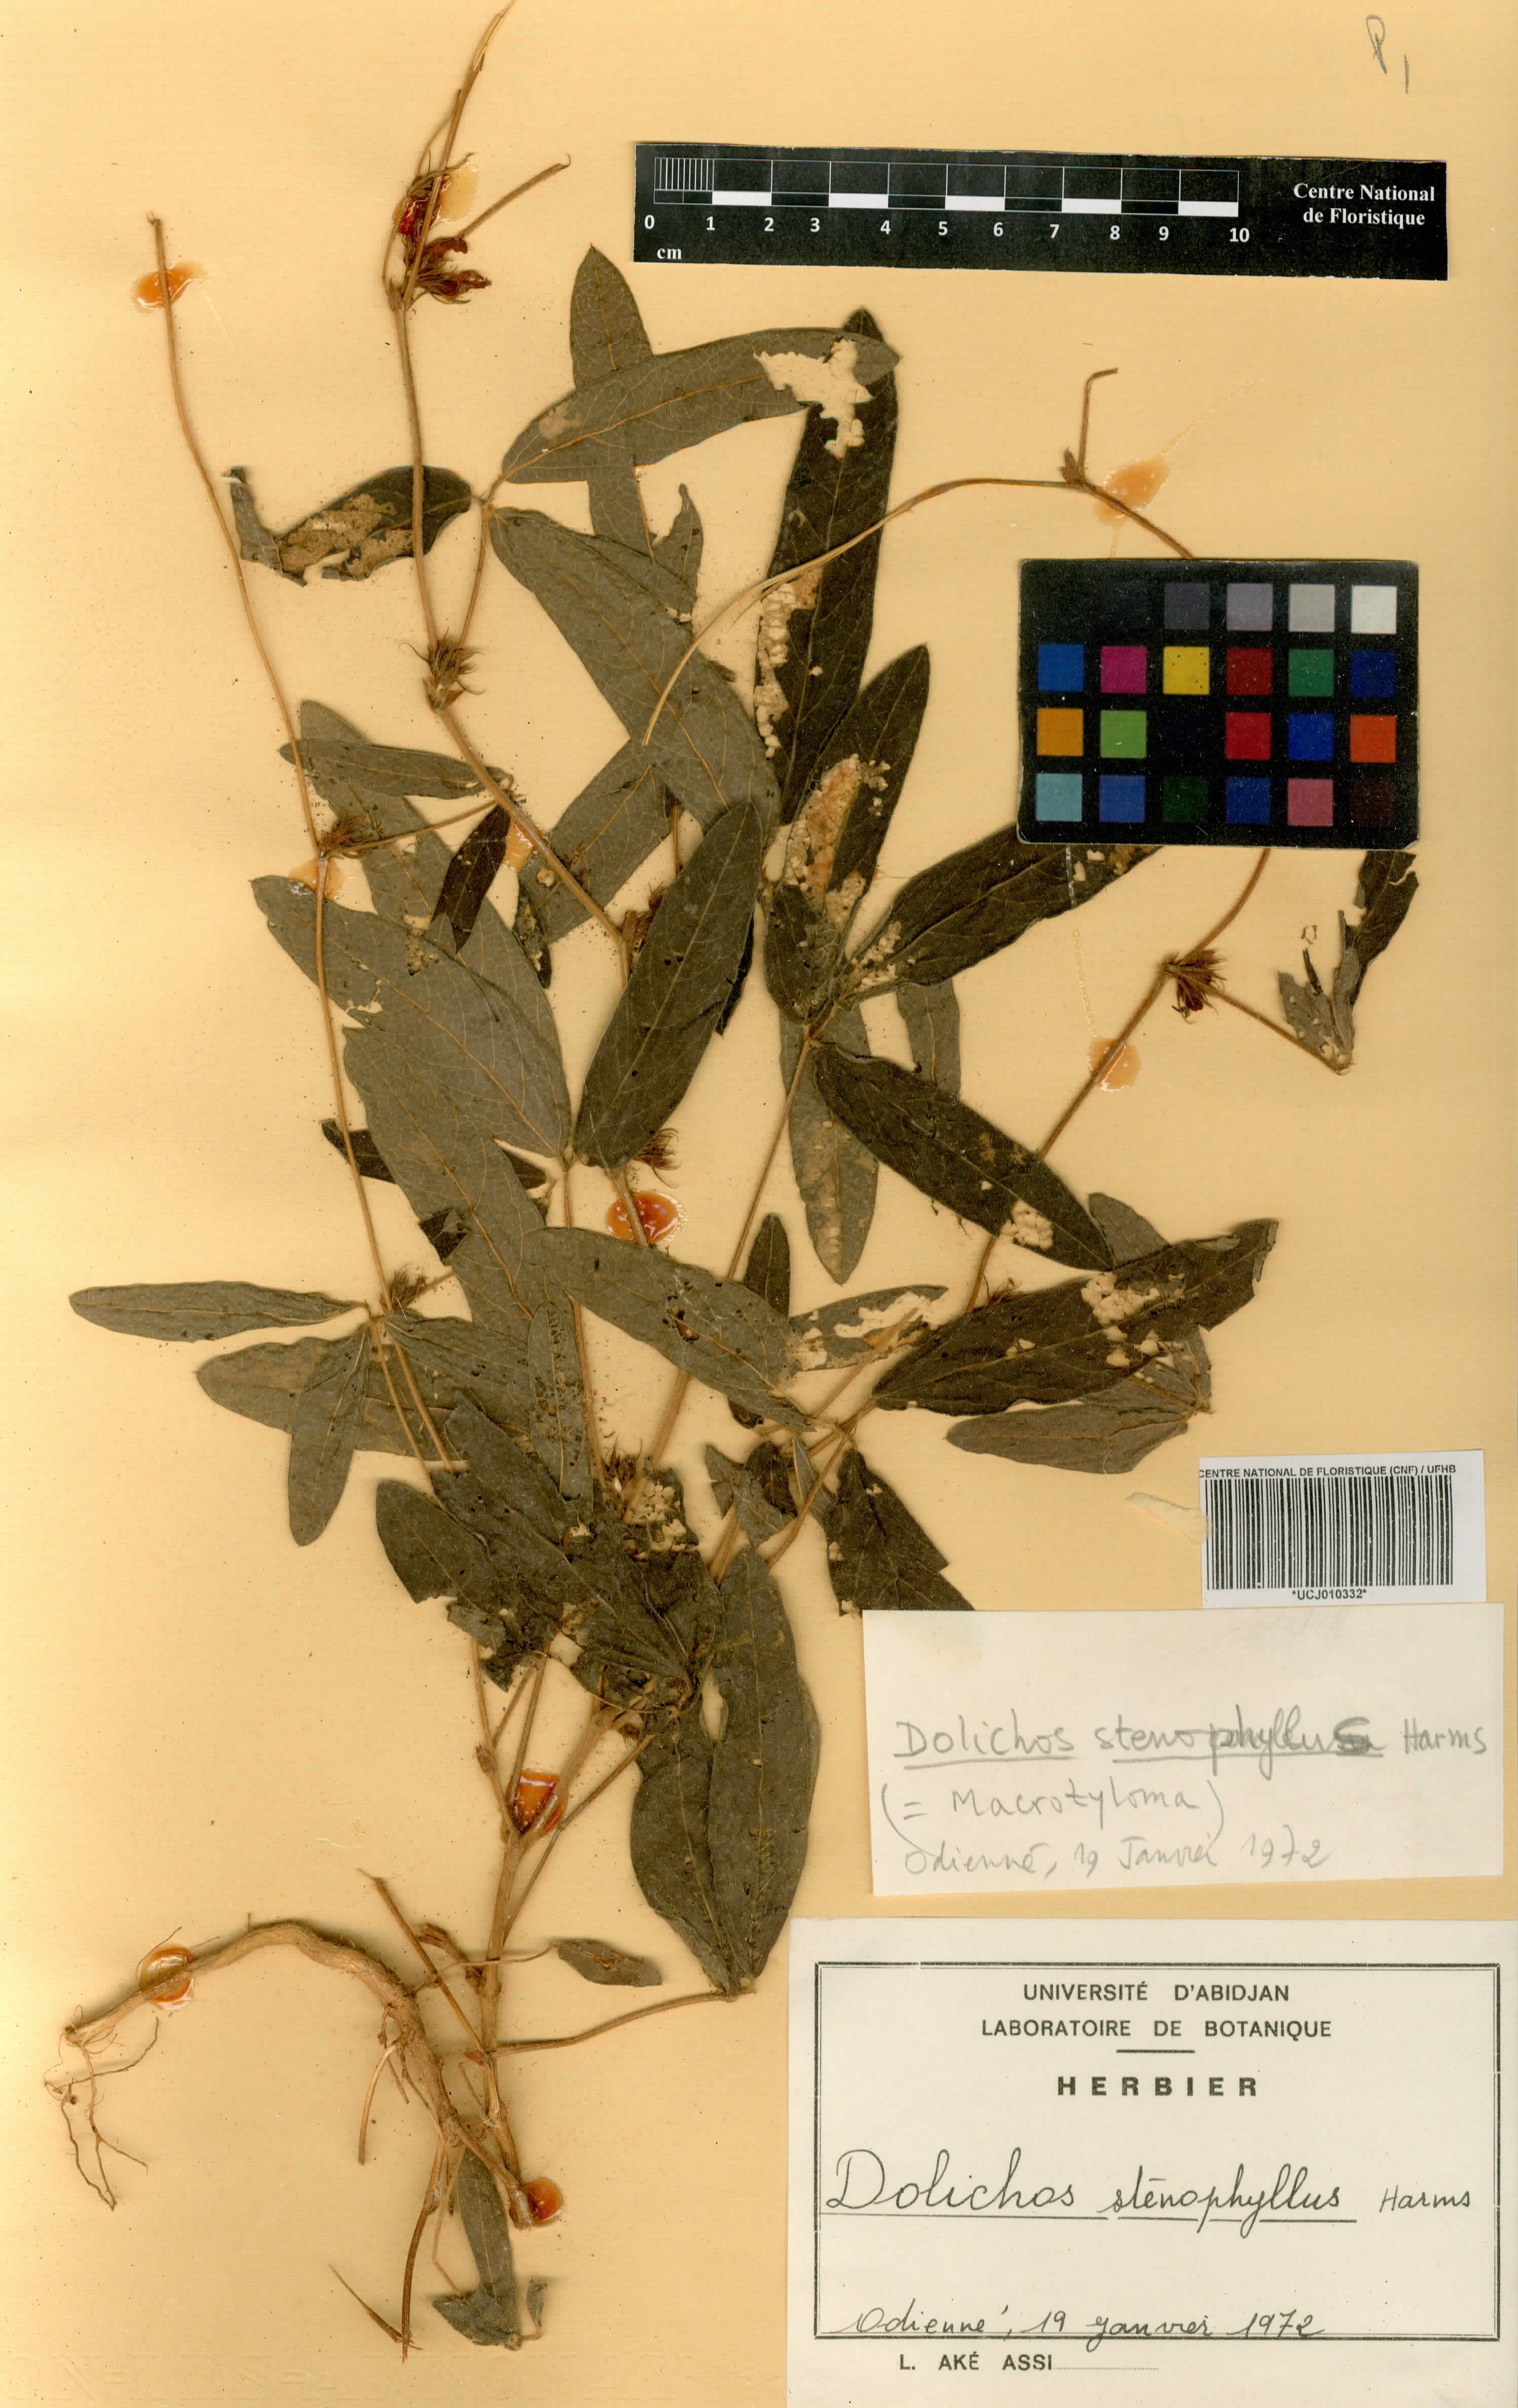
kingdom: Plantae
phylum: Tracheophyta
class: Magnoliopsida
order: Fabales
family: Fabaceae
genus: Macrotyloma
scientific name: Macrotyloma stenophyllum
